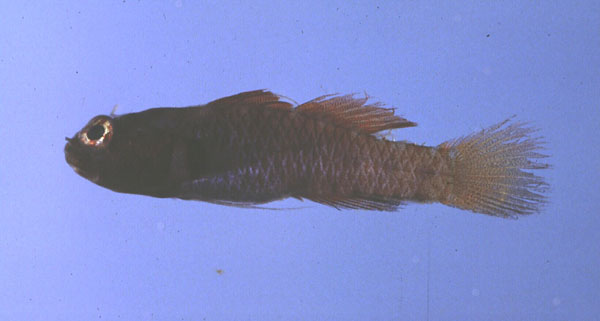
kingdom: Animalia
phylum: Chordata
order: Perciformes
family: Gobiidae
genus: Eviota
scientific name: Eviota monostigma
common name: Singlespot eviota
